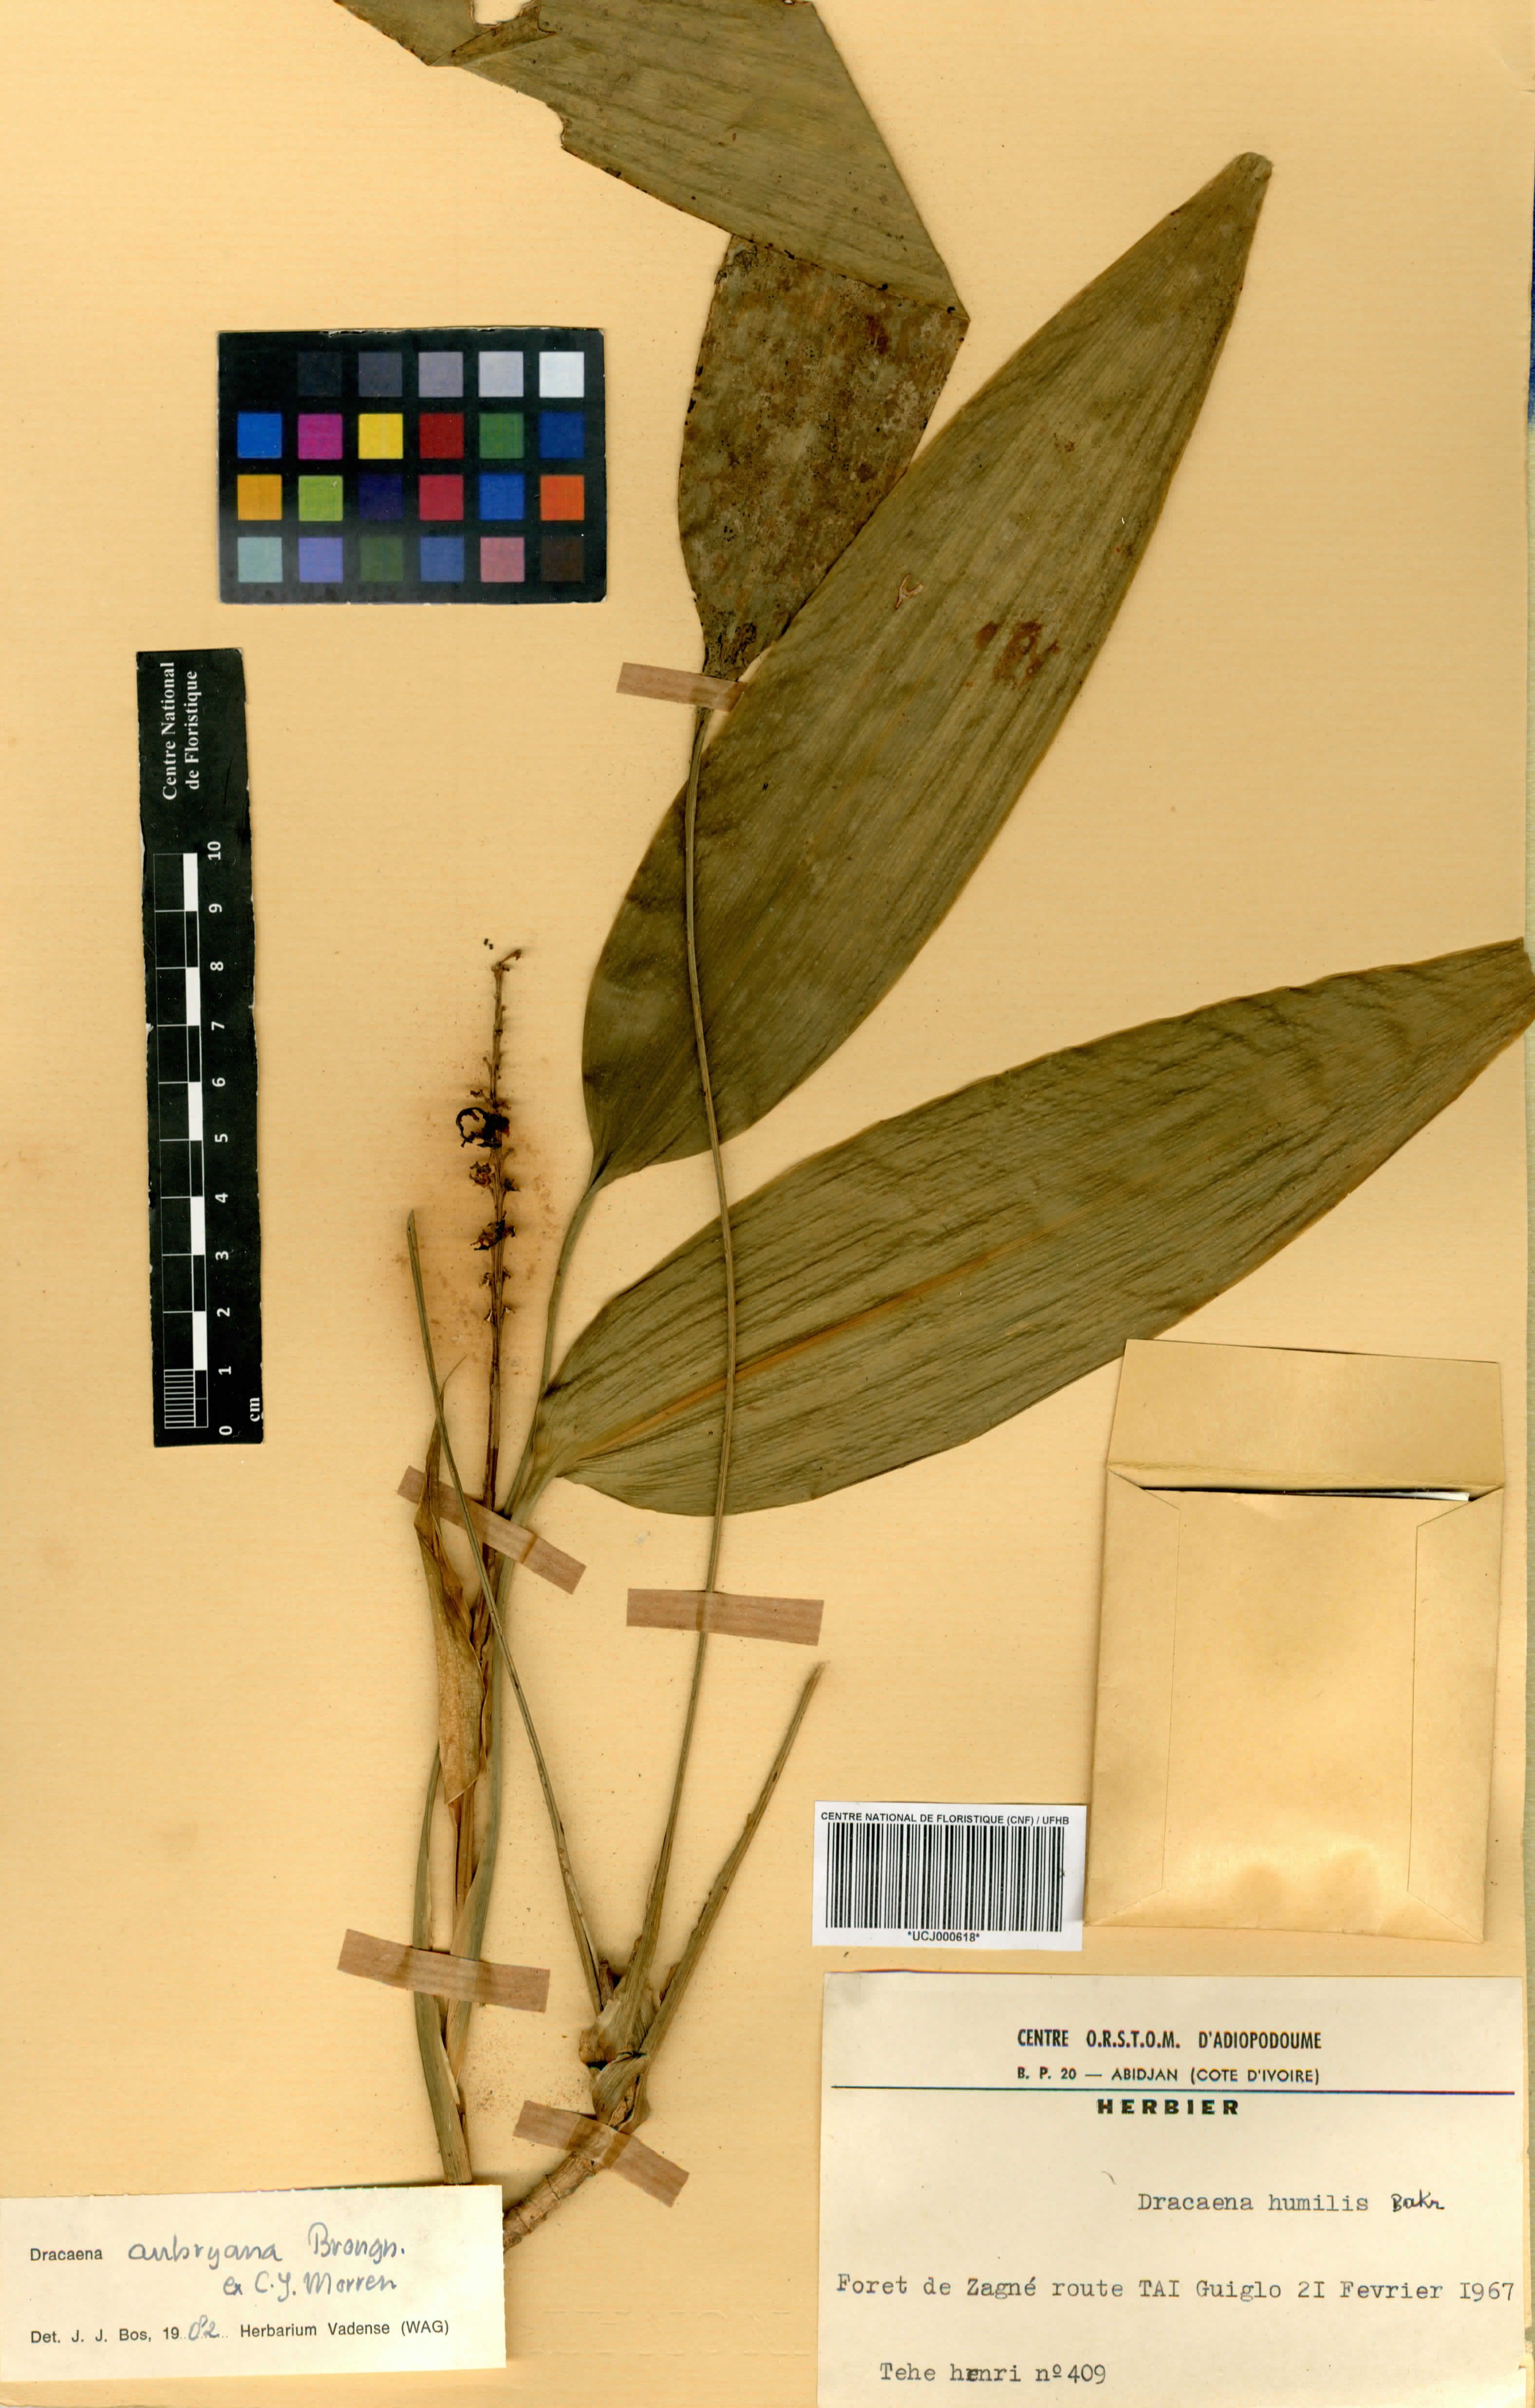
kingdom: Plantae
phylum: Tracheophyta
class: Liliopsida
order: Asparagales
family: Asparagaceae
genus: Dracaena
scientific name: Dracaena aubryana
